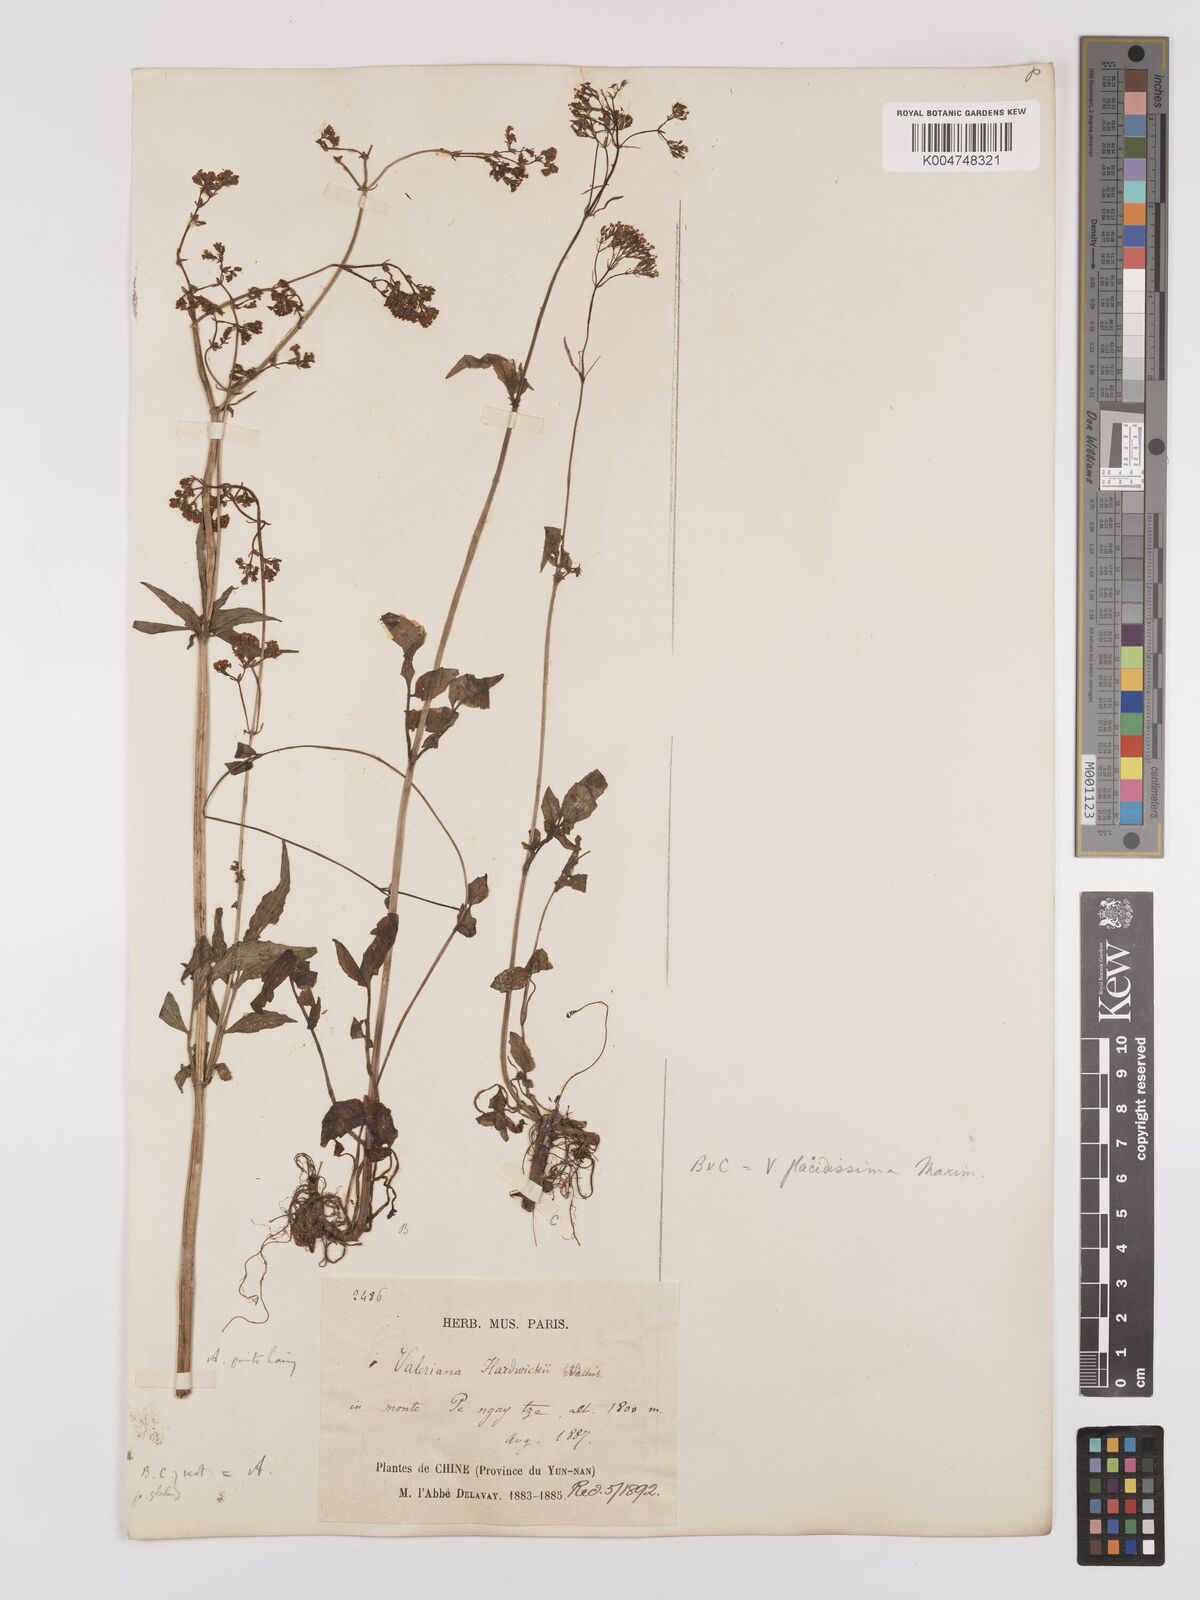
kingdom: Plantae
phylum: Tracheophyta
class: Magnoliopsida
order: Dipsacales
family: Caprifoliaceae
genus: Valeriana
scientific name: Valeriana flaccidissima
